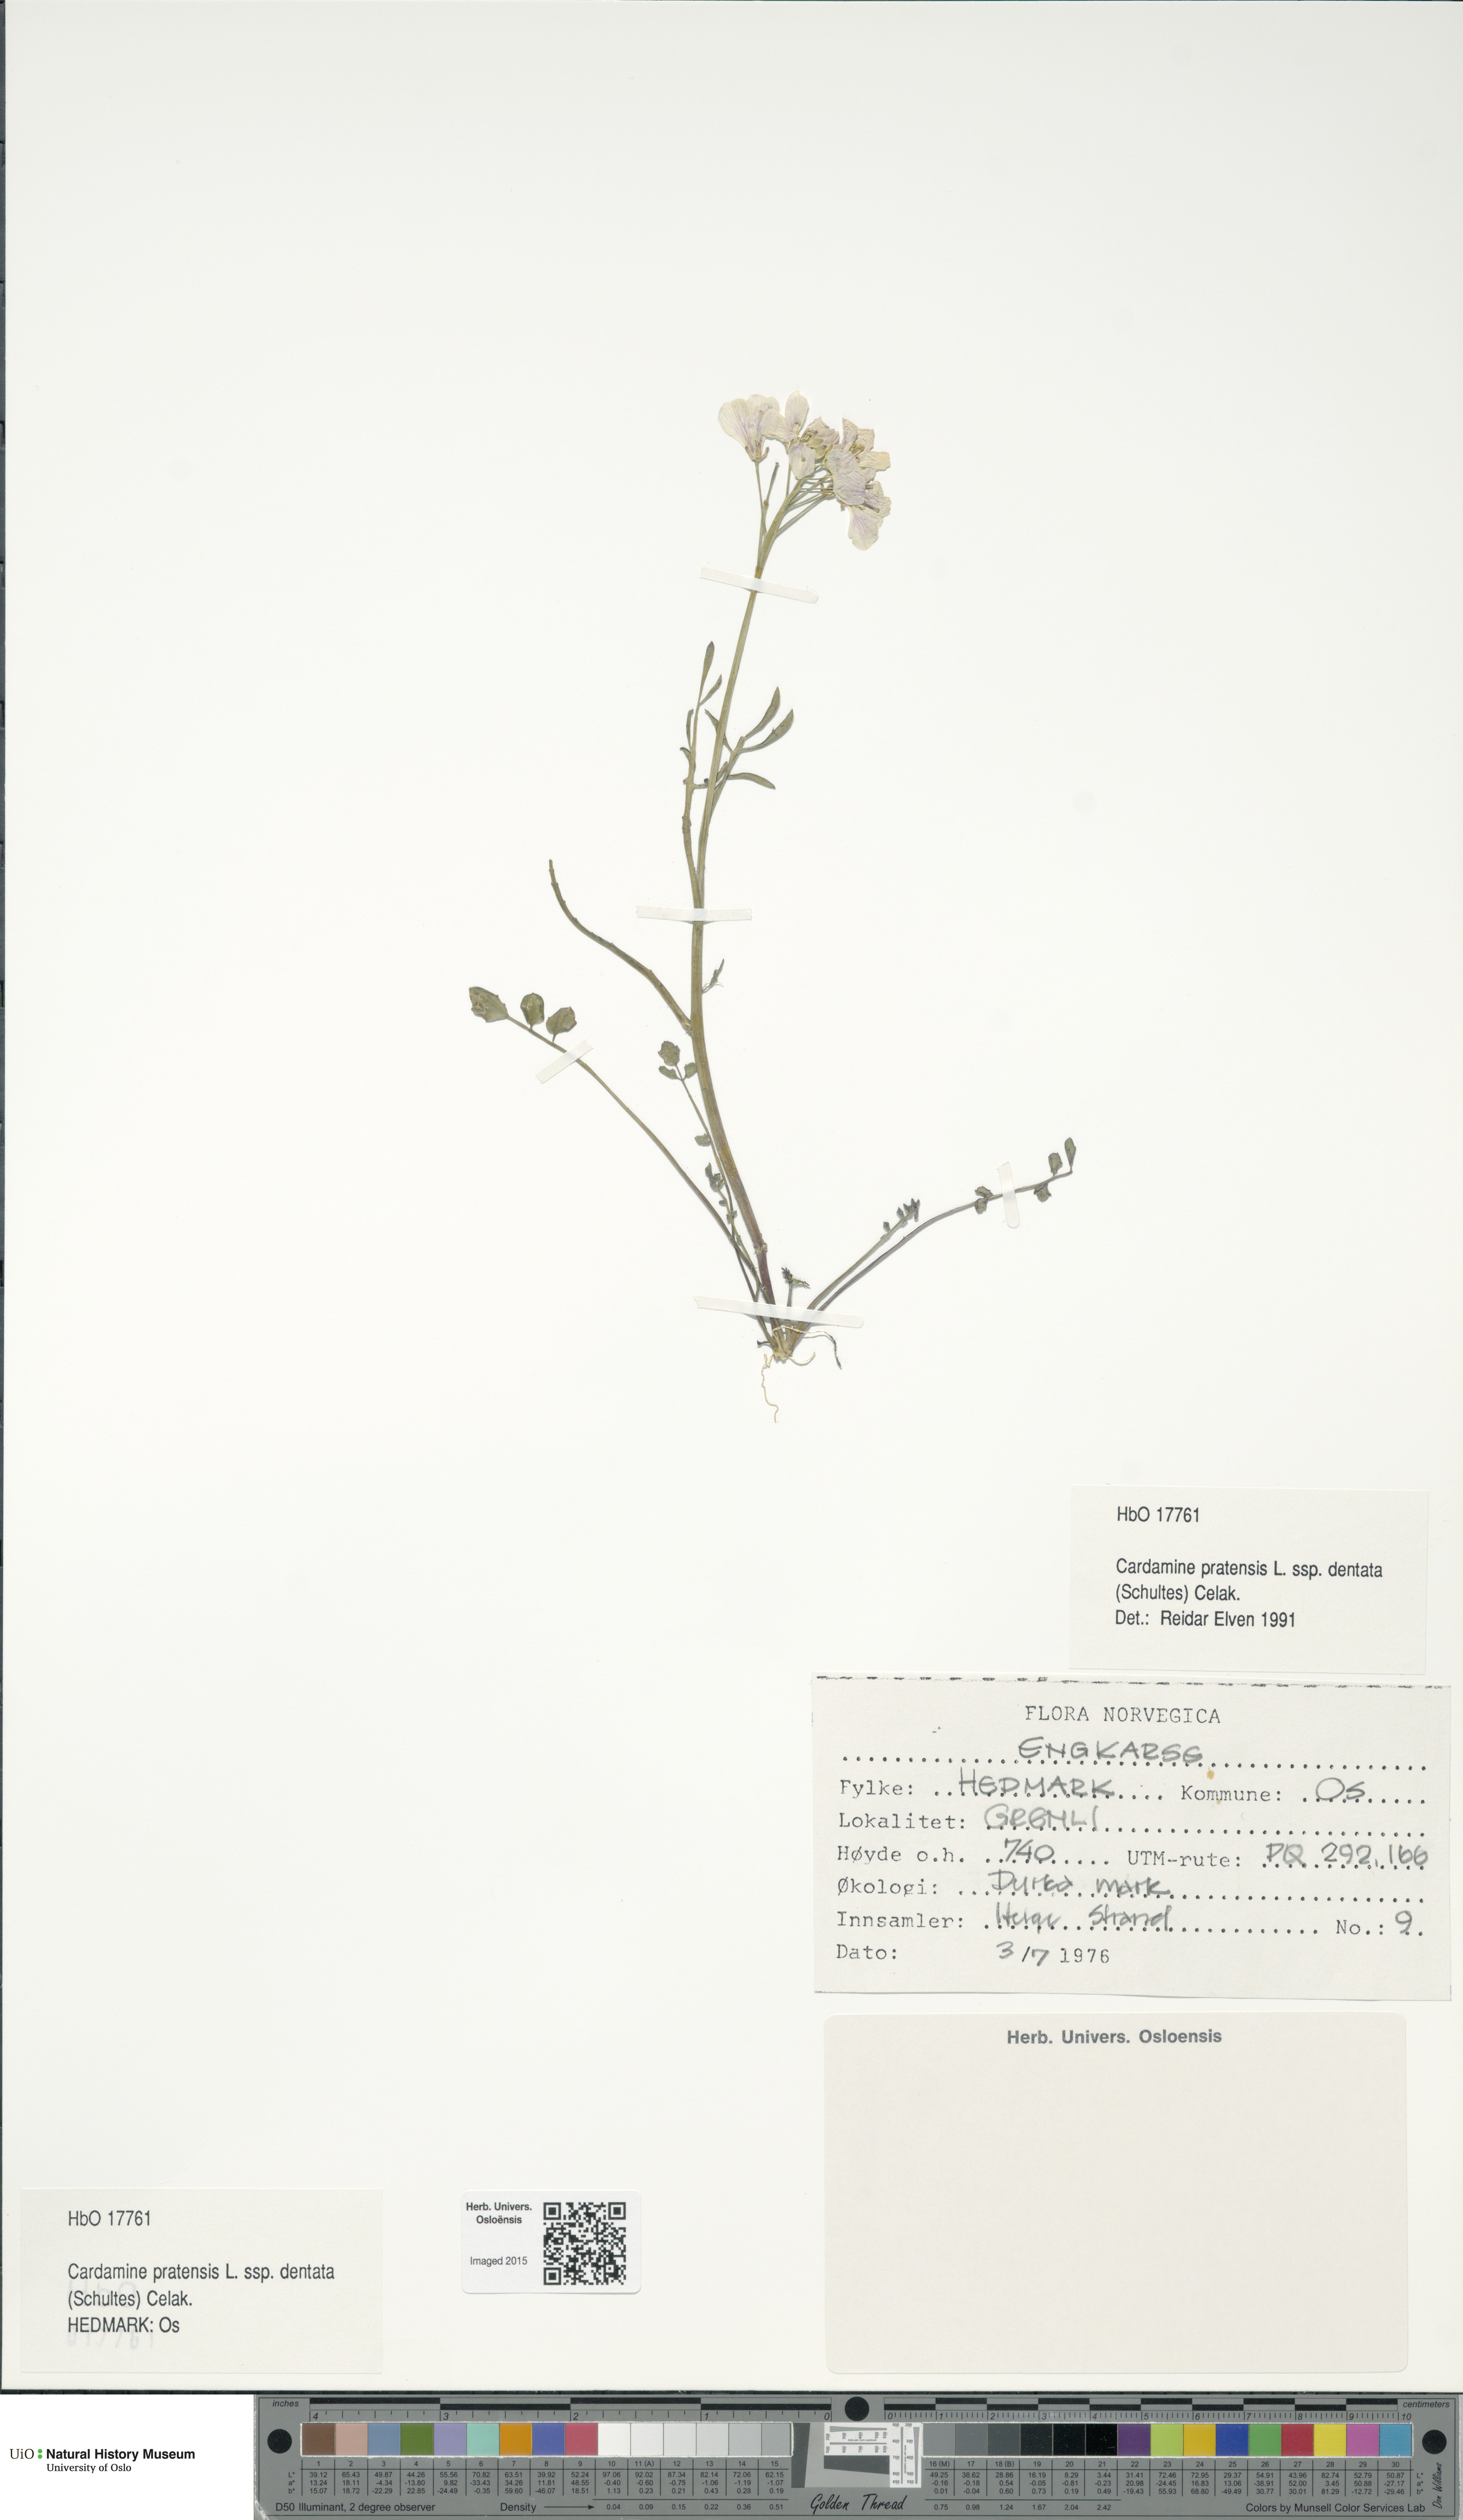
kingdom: Plantae
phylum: Tracheophyta
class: Magnoliopsida
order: Brassicales
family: Brassicaceae
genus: Cardamine
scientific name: Cardamine dentata
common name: Toothed bittercress
